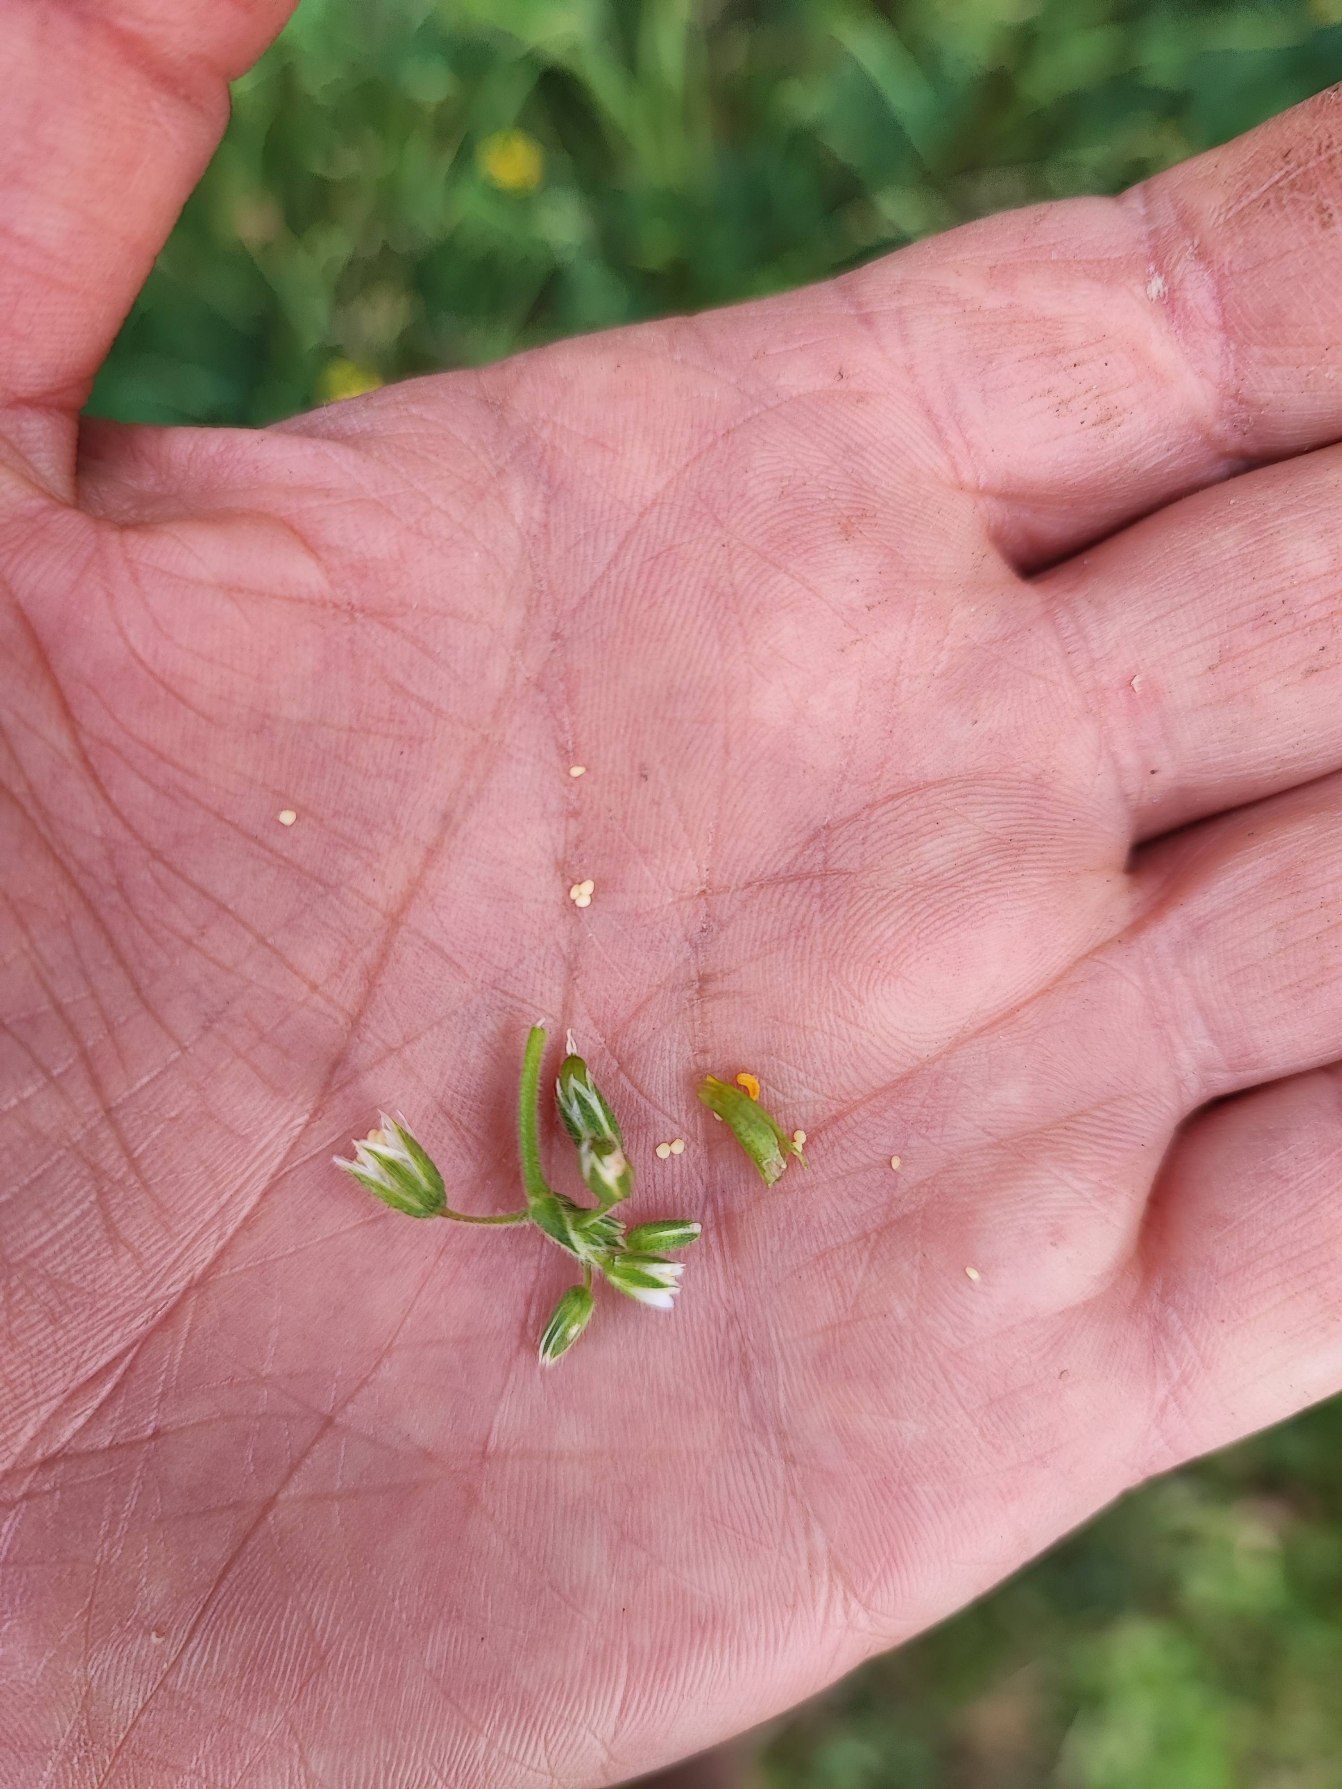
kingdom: Animalia
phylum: Arthropoda
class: Insecta
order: Diptera
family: Cecidomyiidae
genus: Dasineura
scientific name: Dasineura fructum
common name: Hørsetarmkapselgalmyg
